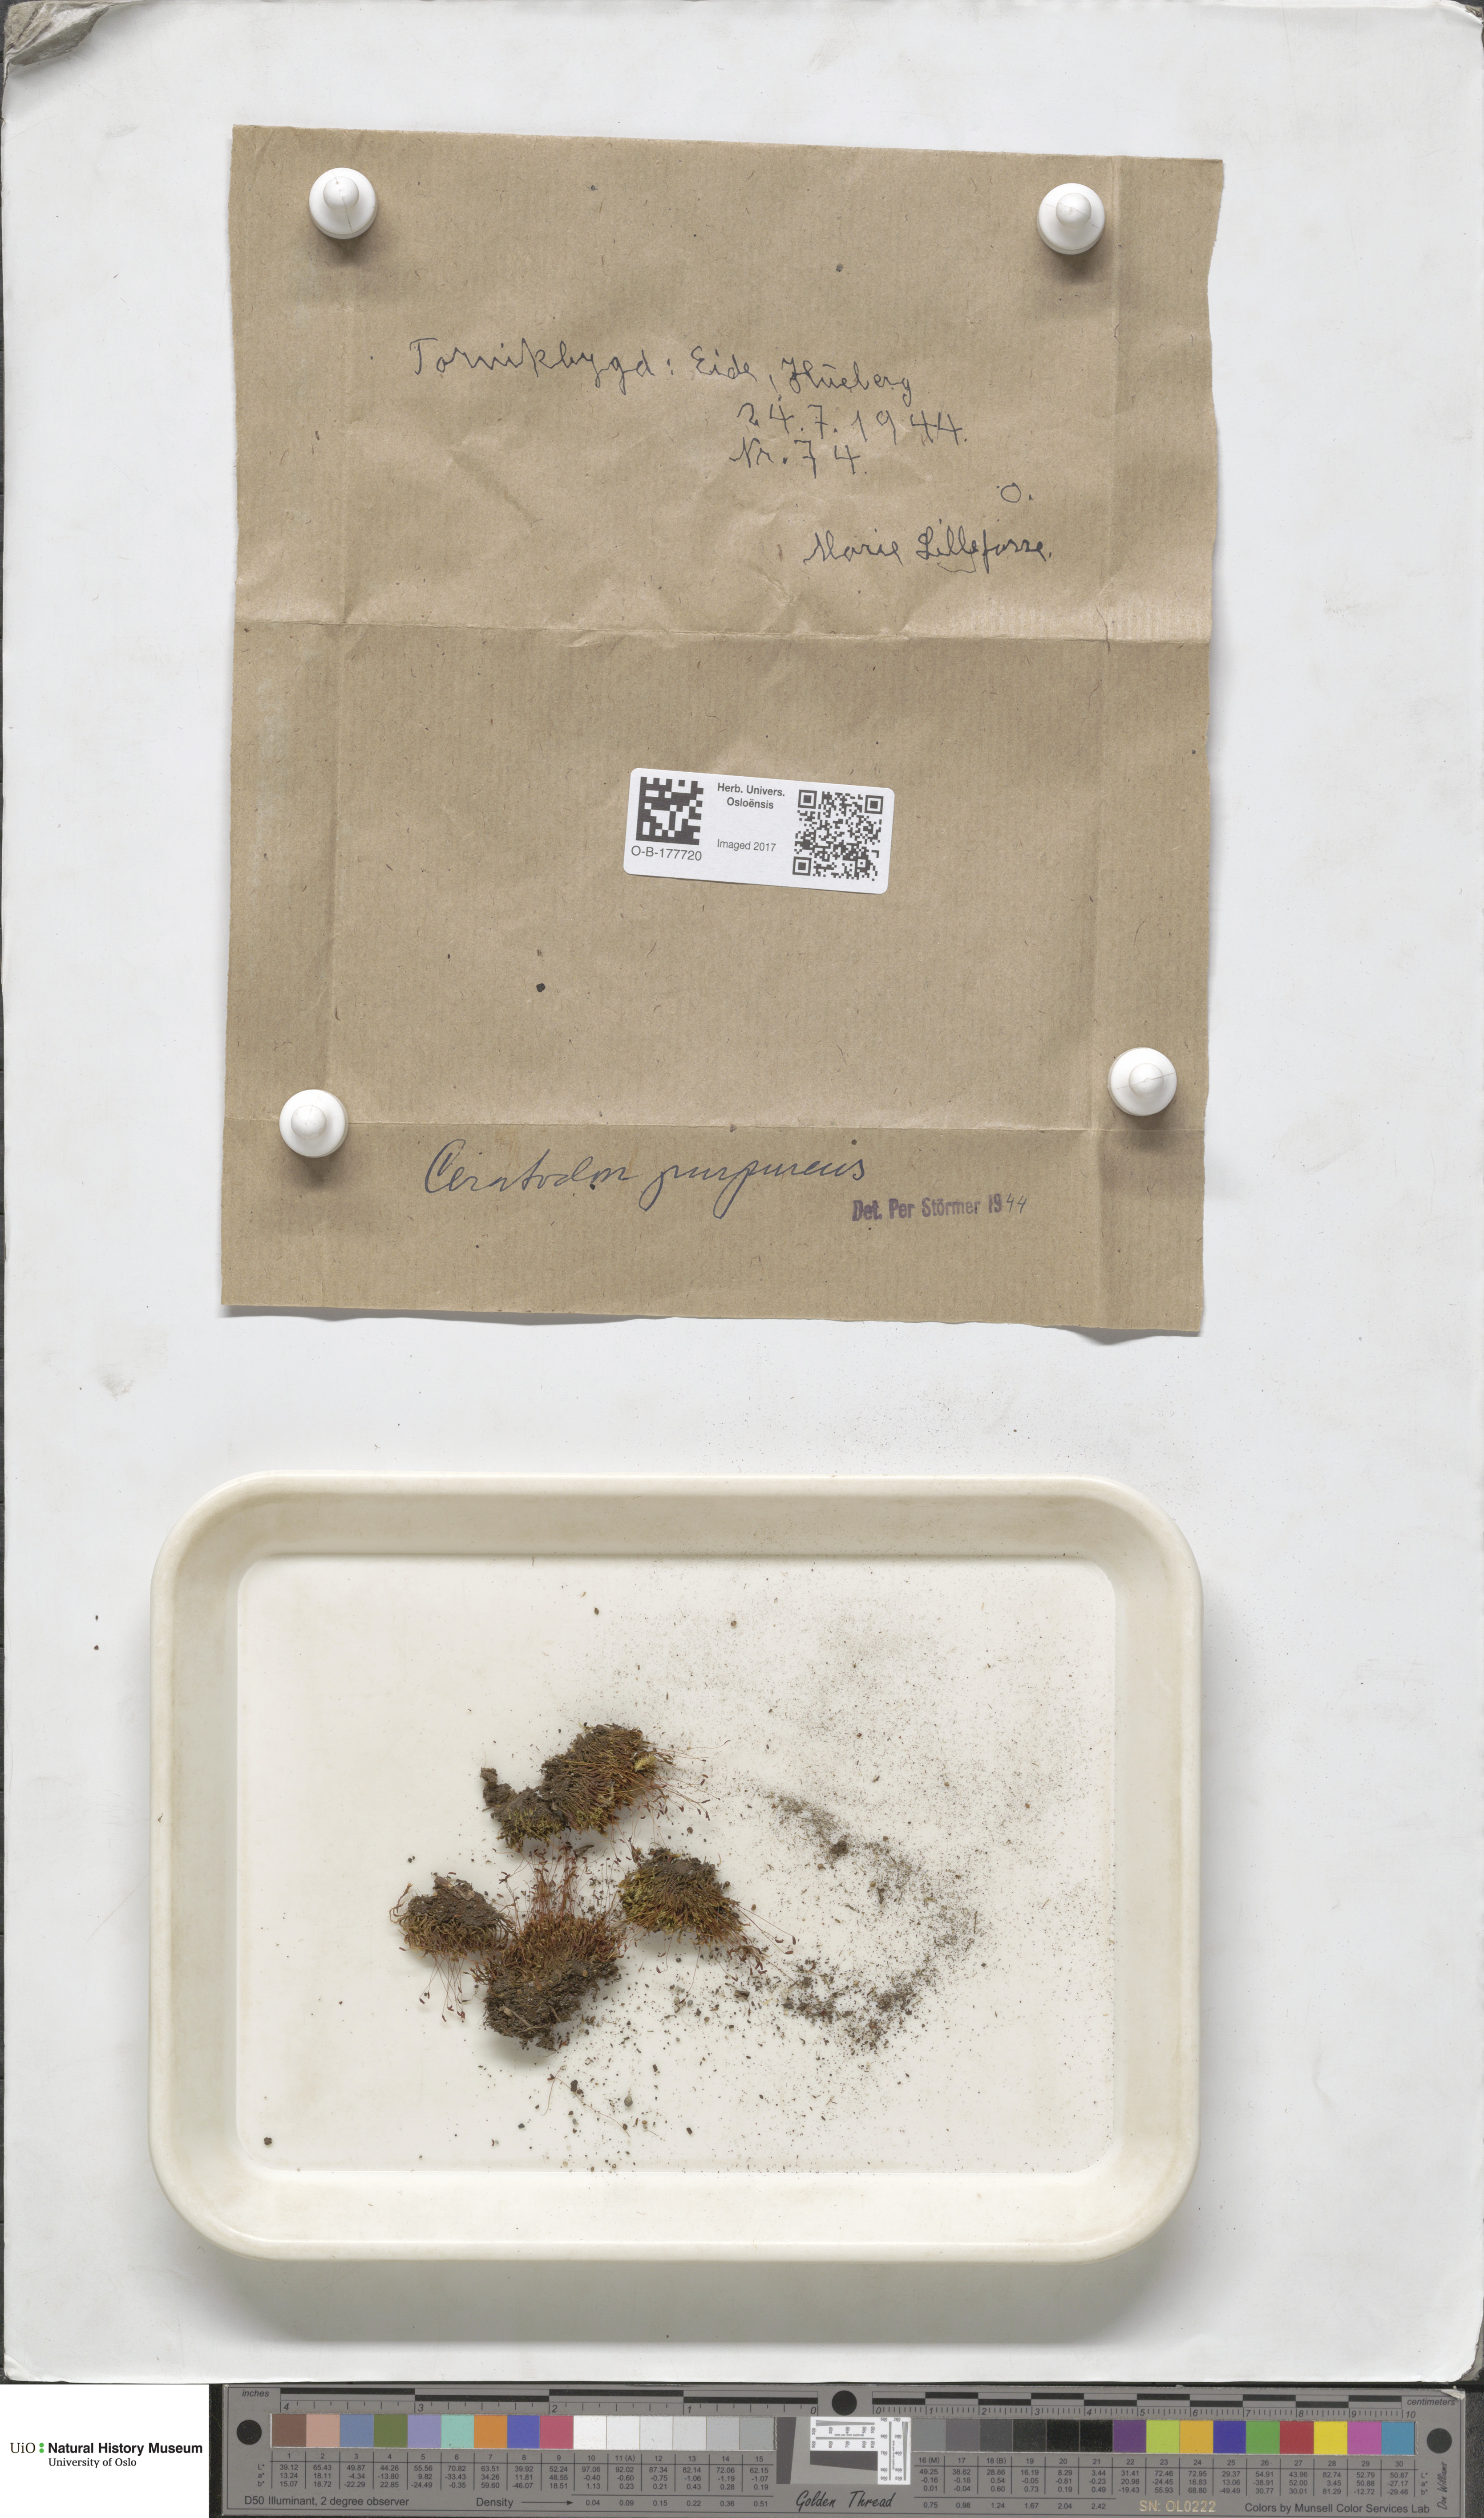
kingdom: Plantae
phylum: Bryophyta
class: Bryopsida
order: Dicranales
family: Ditrichaceae
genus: Ceratodon
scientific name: Ceratodon purpureus
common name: Redshank
